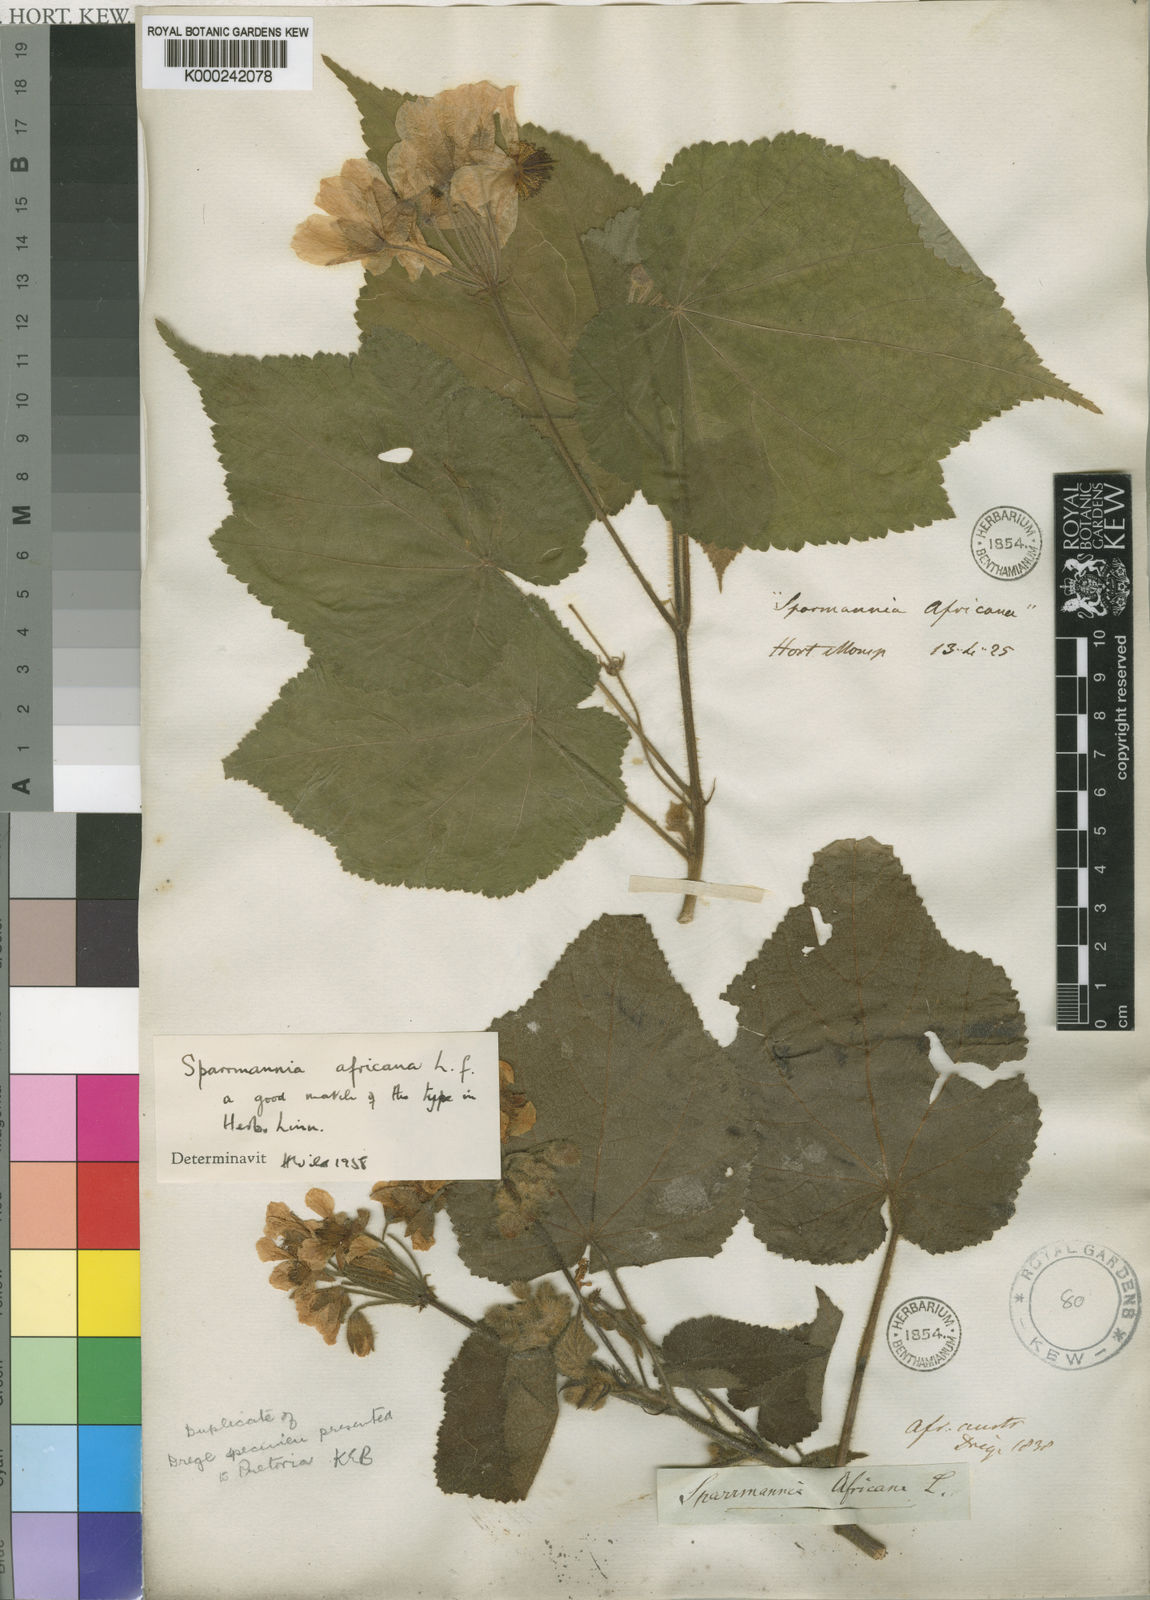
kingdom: Plantae
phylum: Tracheophyta
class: Magnoliopsida
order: Malvales
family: Malvaceae
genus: Sparrmannia
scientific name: Sparrmannia africana
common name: African-hemp
